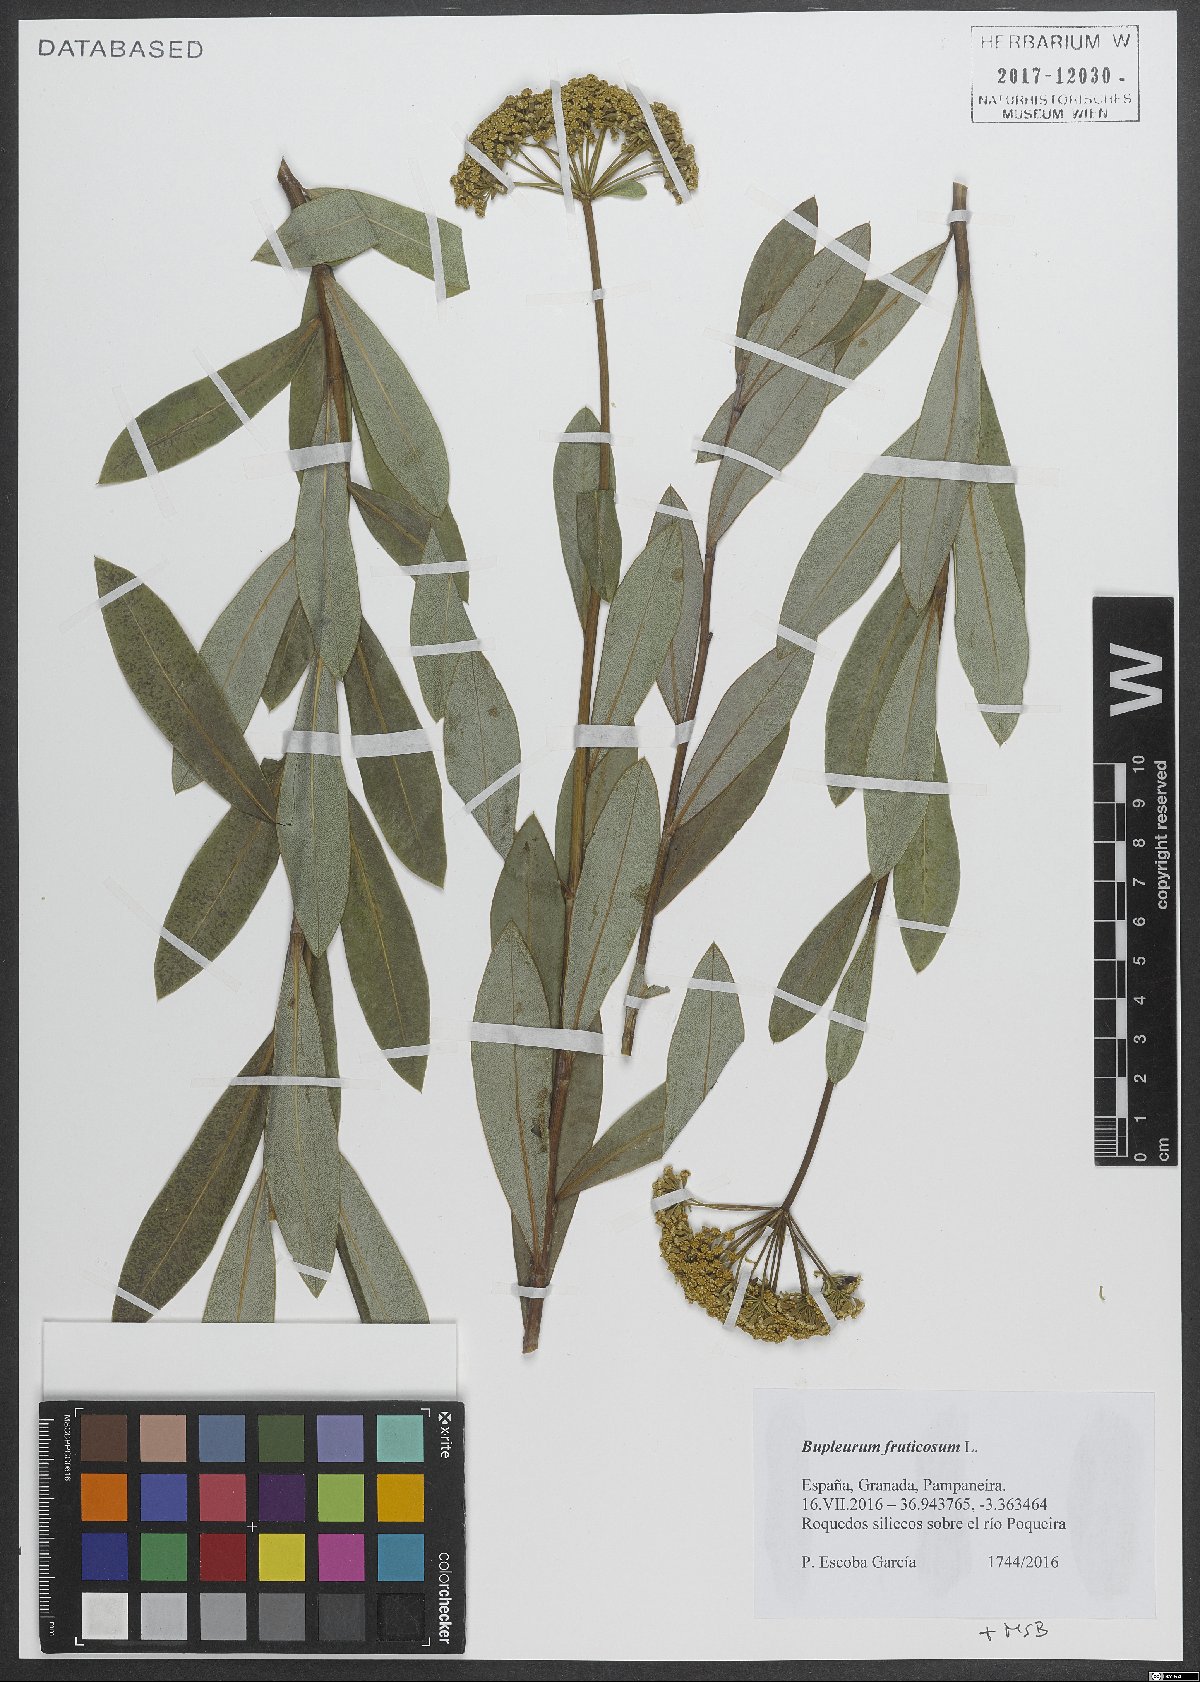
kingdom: Plantae
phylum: Tracheophyta
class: Magnoliopsida
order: Apiales
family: Apiaceae
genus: Bupleurum
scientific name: Bupleurum fruticosum
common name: Shrubby hare's-ear
